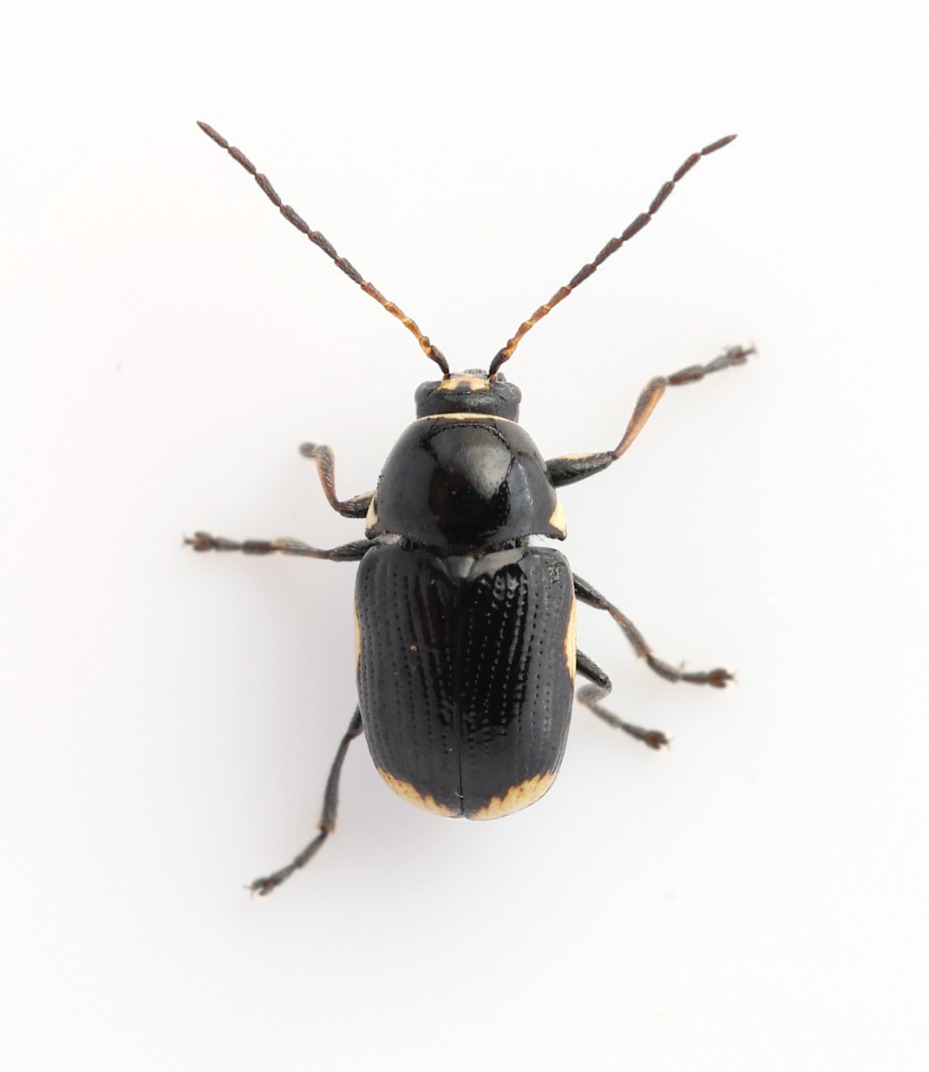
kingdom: Animalia
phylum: Arthropoda
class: Insecta
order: Coleoptera
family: Chrysomelidae
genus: Cryptocephalus
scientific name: Cryptocephalus moraei
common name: Perikonfaldbille
